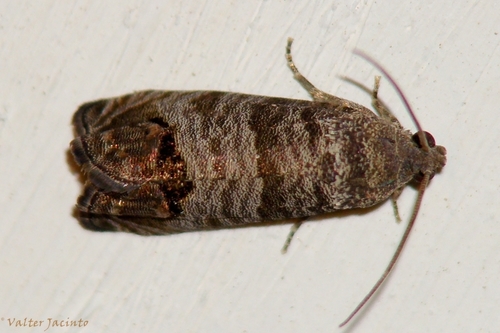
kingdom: Animalia
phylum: Arthropoda
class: Insecta
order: Lepidoptera
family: Tortricidae
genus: Cydia
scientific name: Cydia pomonella
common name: Codling moth
